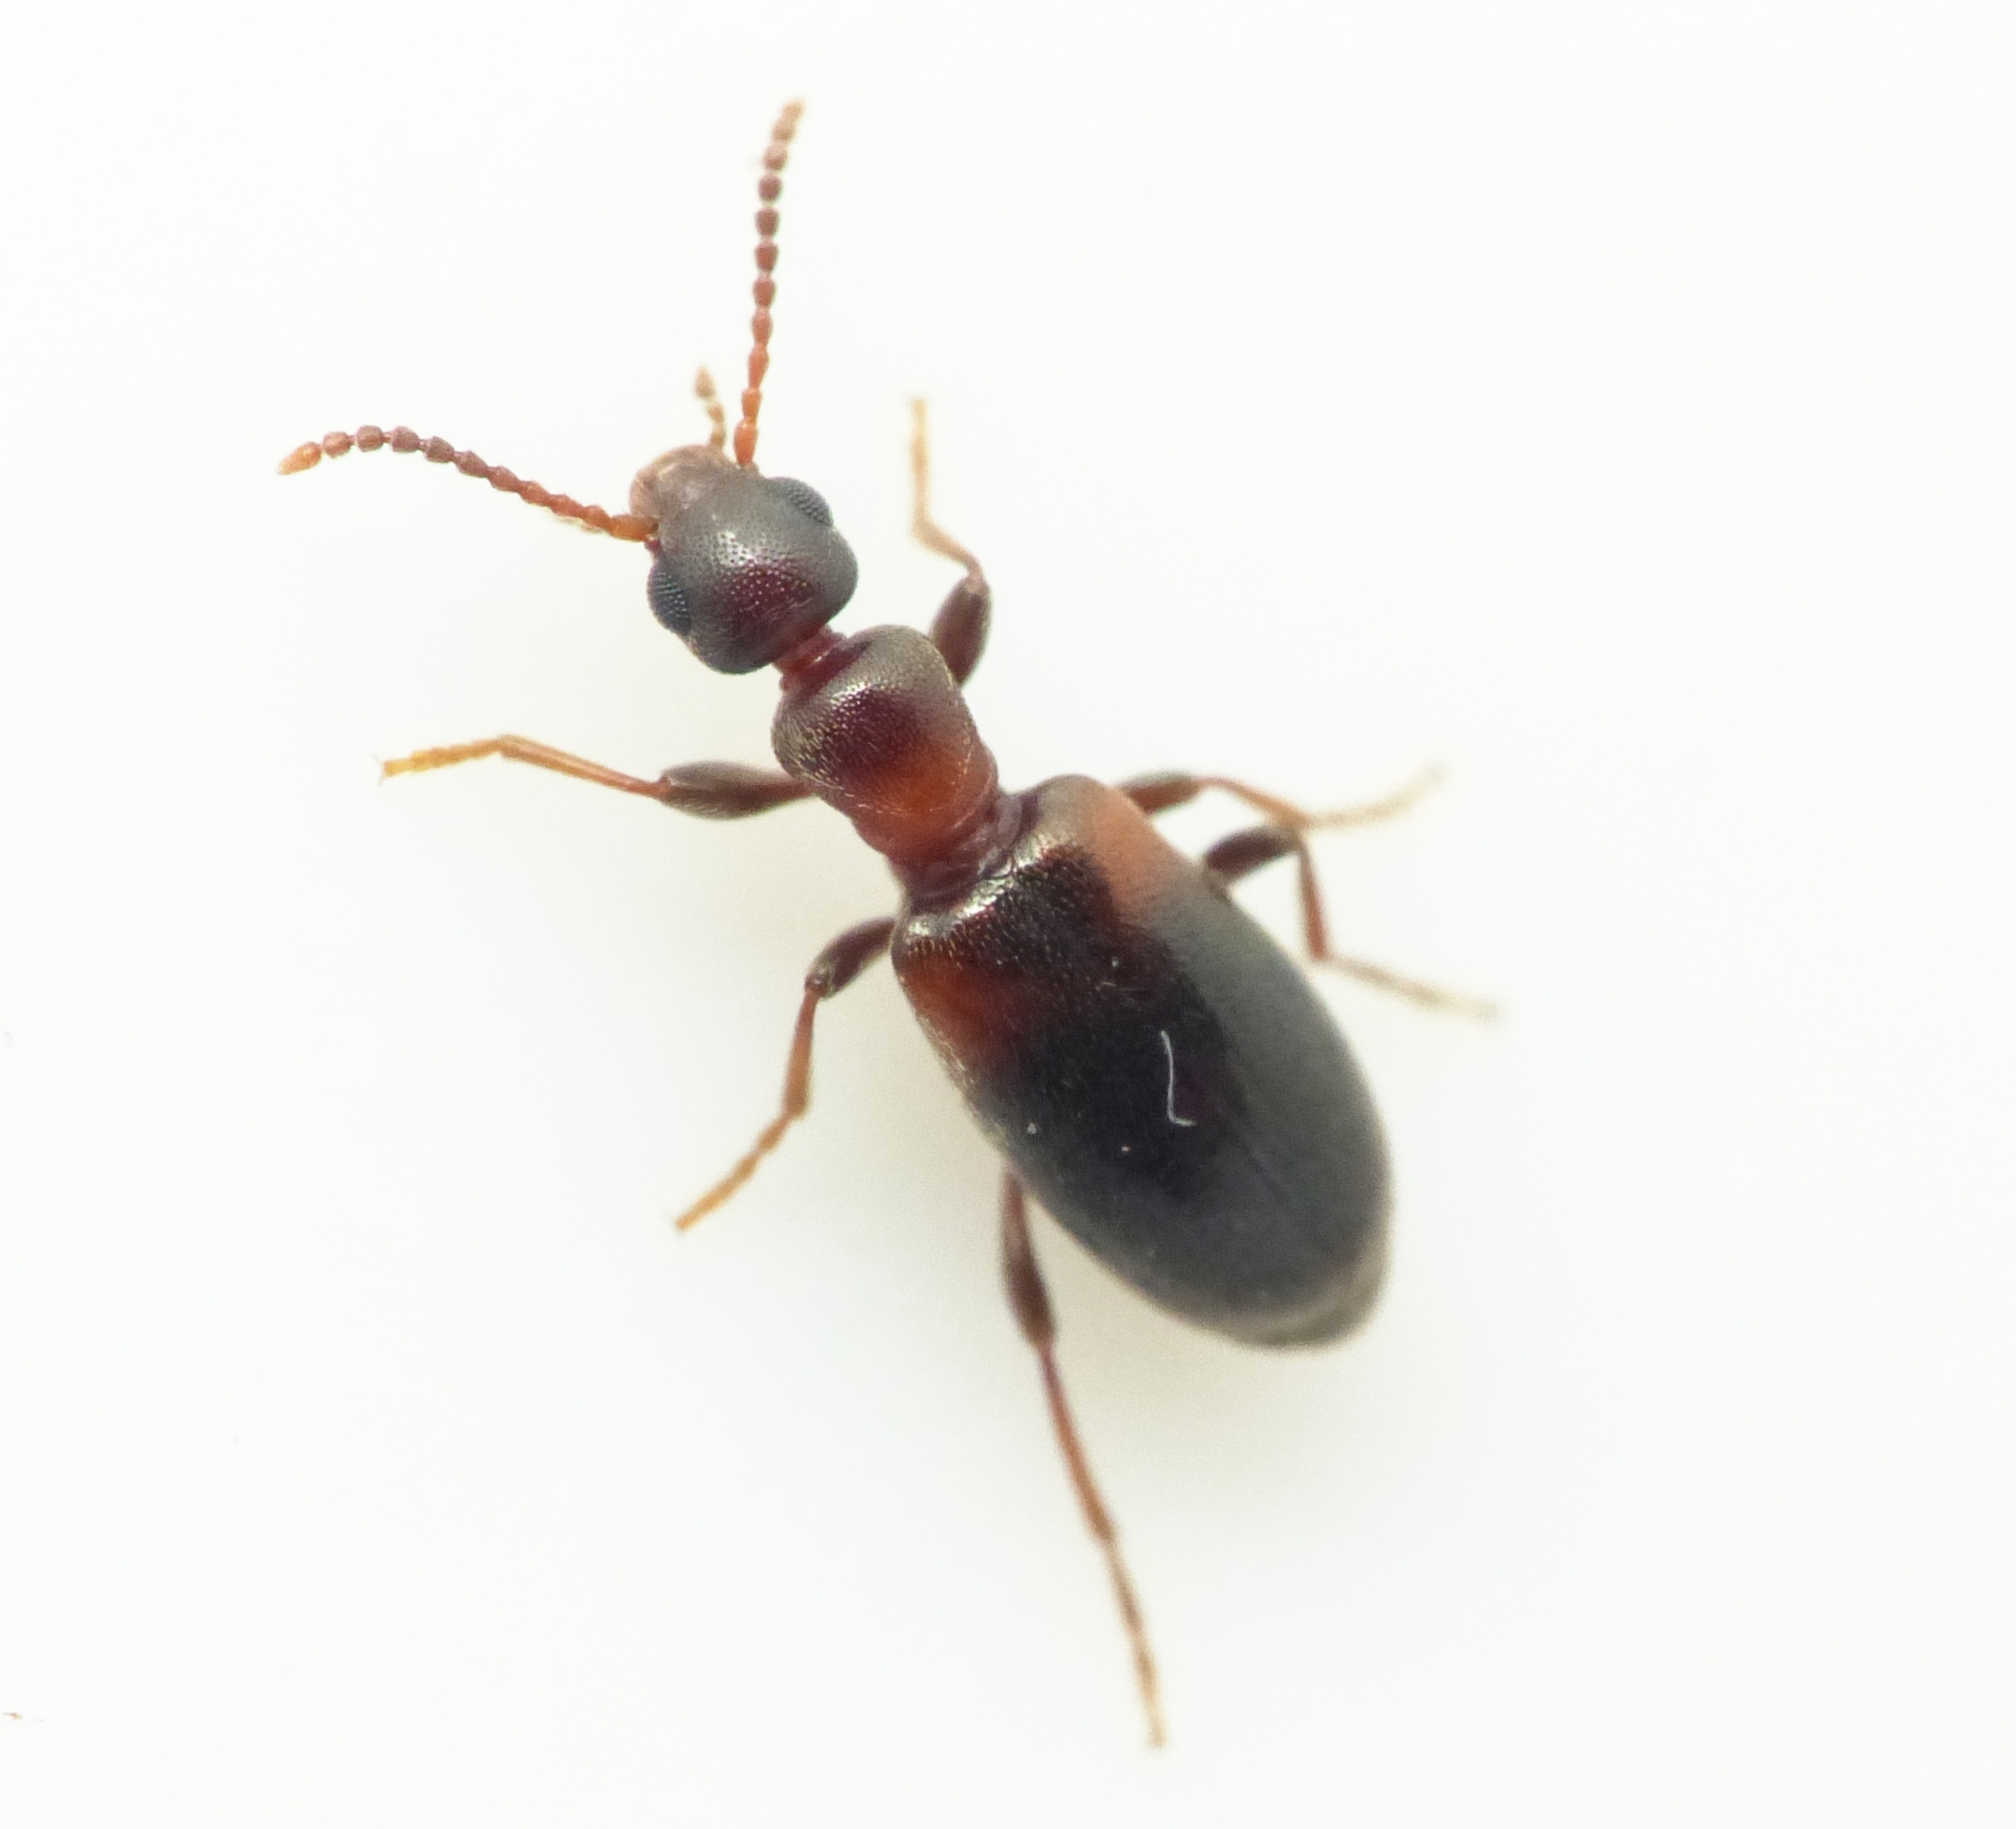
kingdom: Animalia
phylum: Arthropoda
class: Insecta
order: Coleoptera
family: Anthicidae
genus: Omonadus
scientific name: Omonadus formicarius
